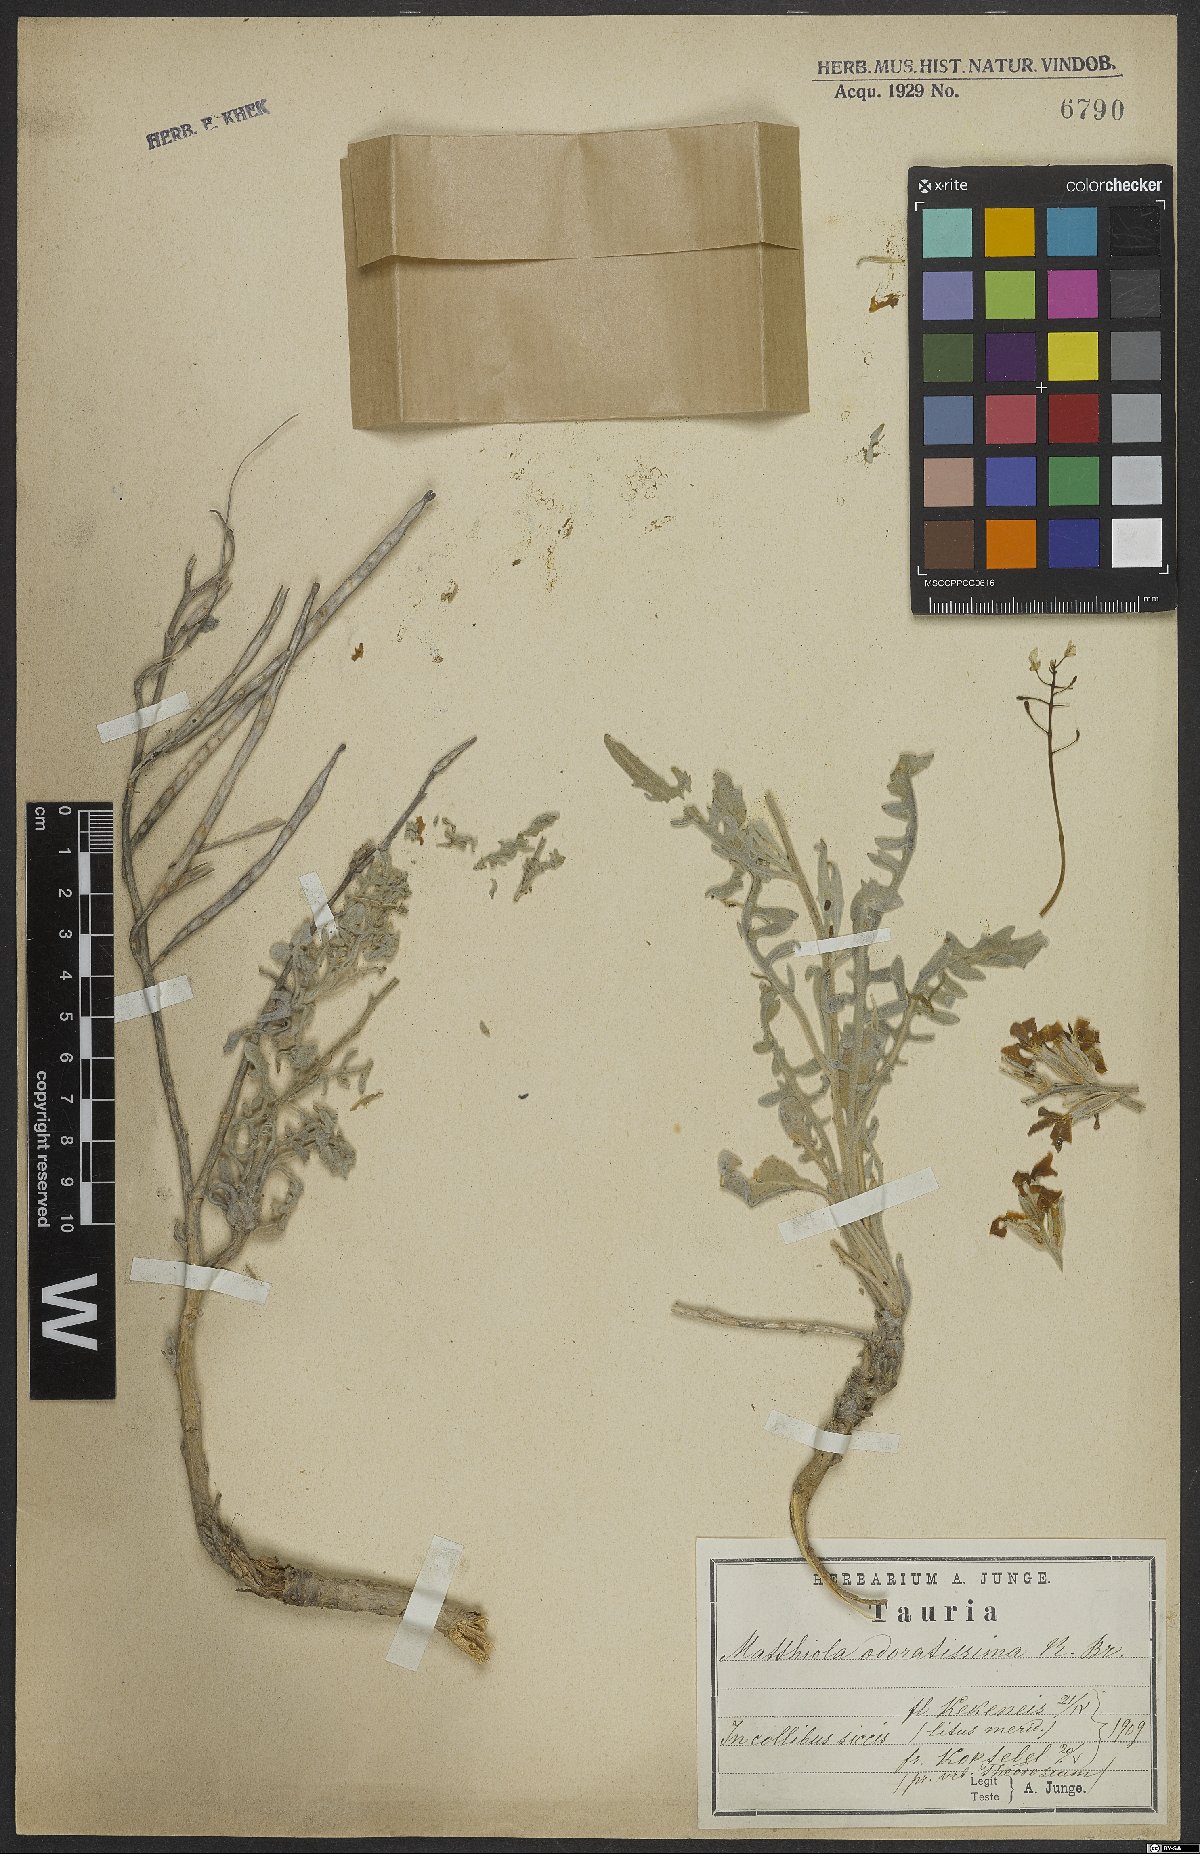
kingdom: Plantae
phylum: Tracheophyta
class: Magnoliopsida
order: Brassicales
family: Brassicaceae
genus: Matthiola
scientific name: Matthiola odoratissima
